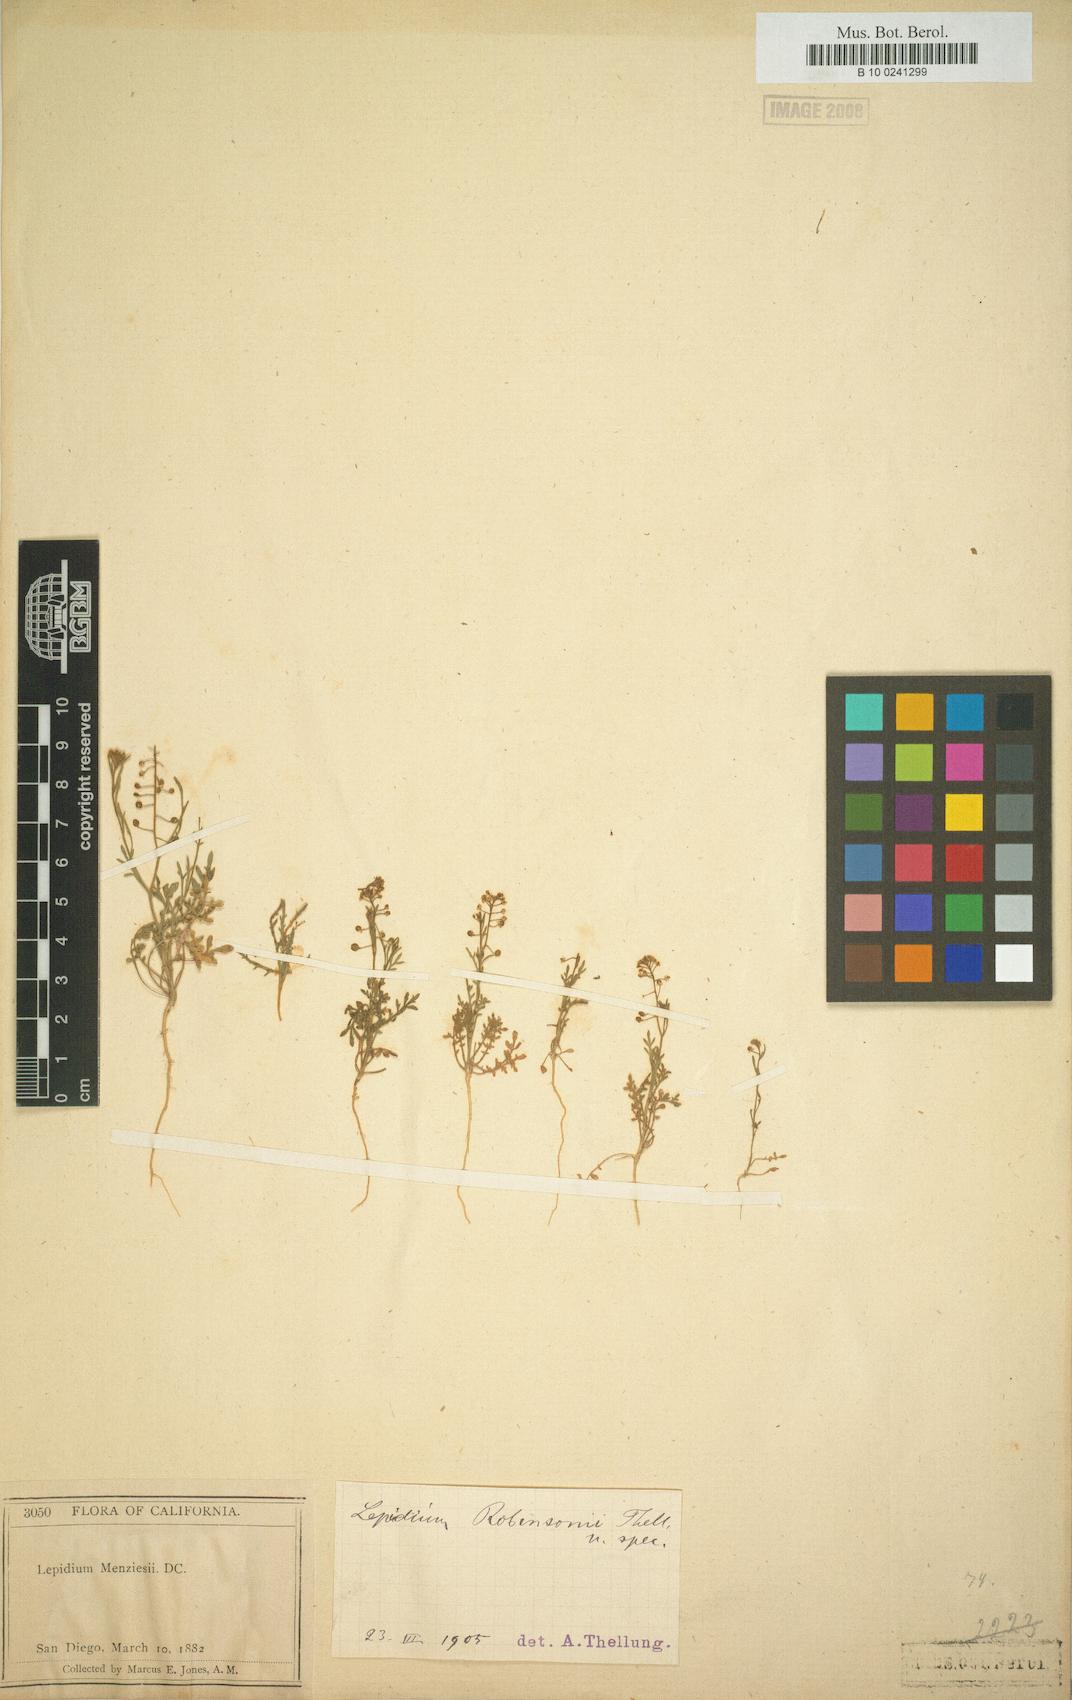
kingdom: Plantae
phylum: Tracheophyta
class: Magnoliopsida
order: Brassicales
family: Brassicaceae
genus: Lepidium
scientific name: Lepidium virginicum
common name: Least pepperwort
